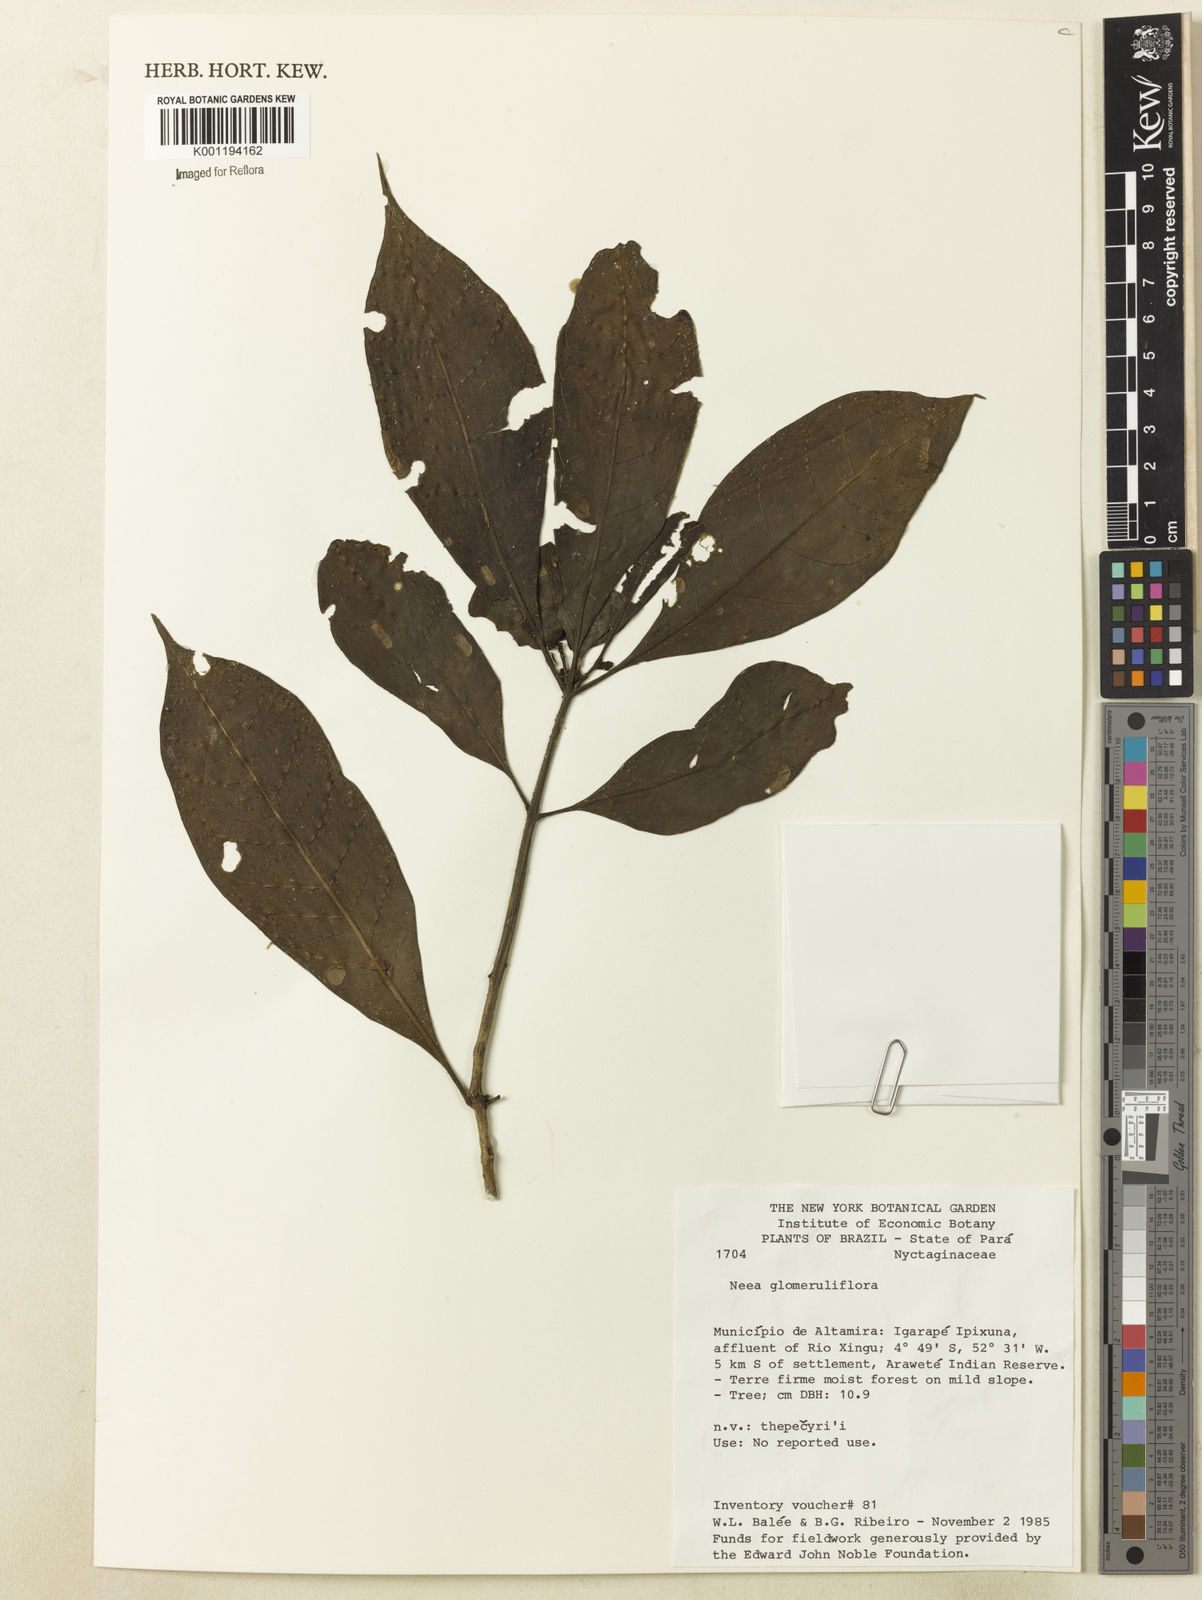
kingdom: Plantae
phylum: Tracheophyta
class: Magnoliopsida
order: Caryophyllales
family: Nyctaginaceae
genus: Neea
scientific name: Neea ovalifolia
